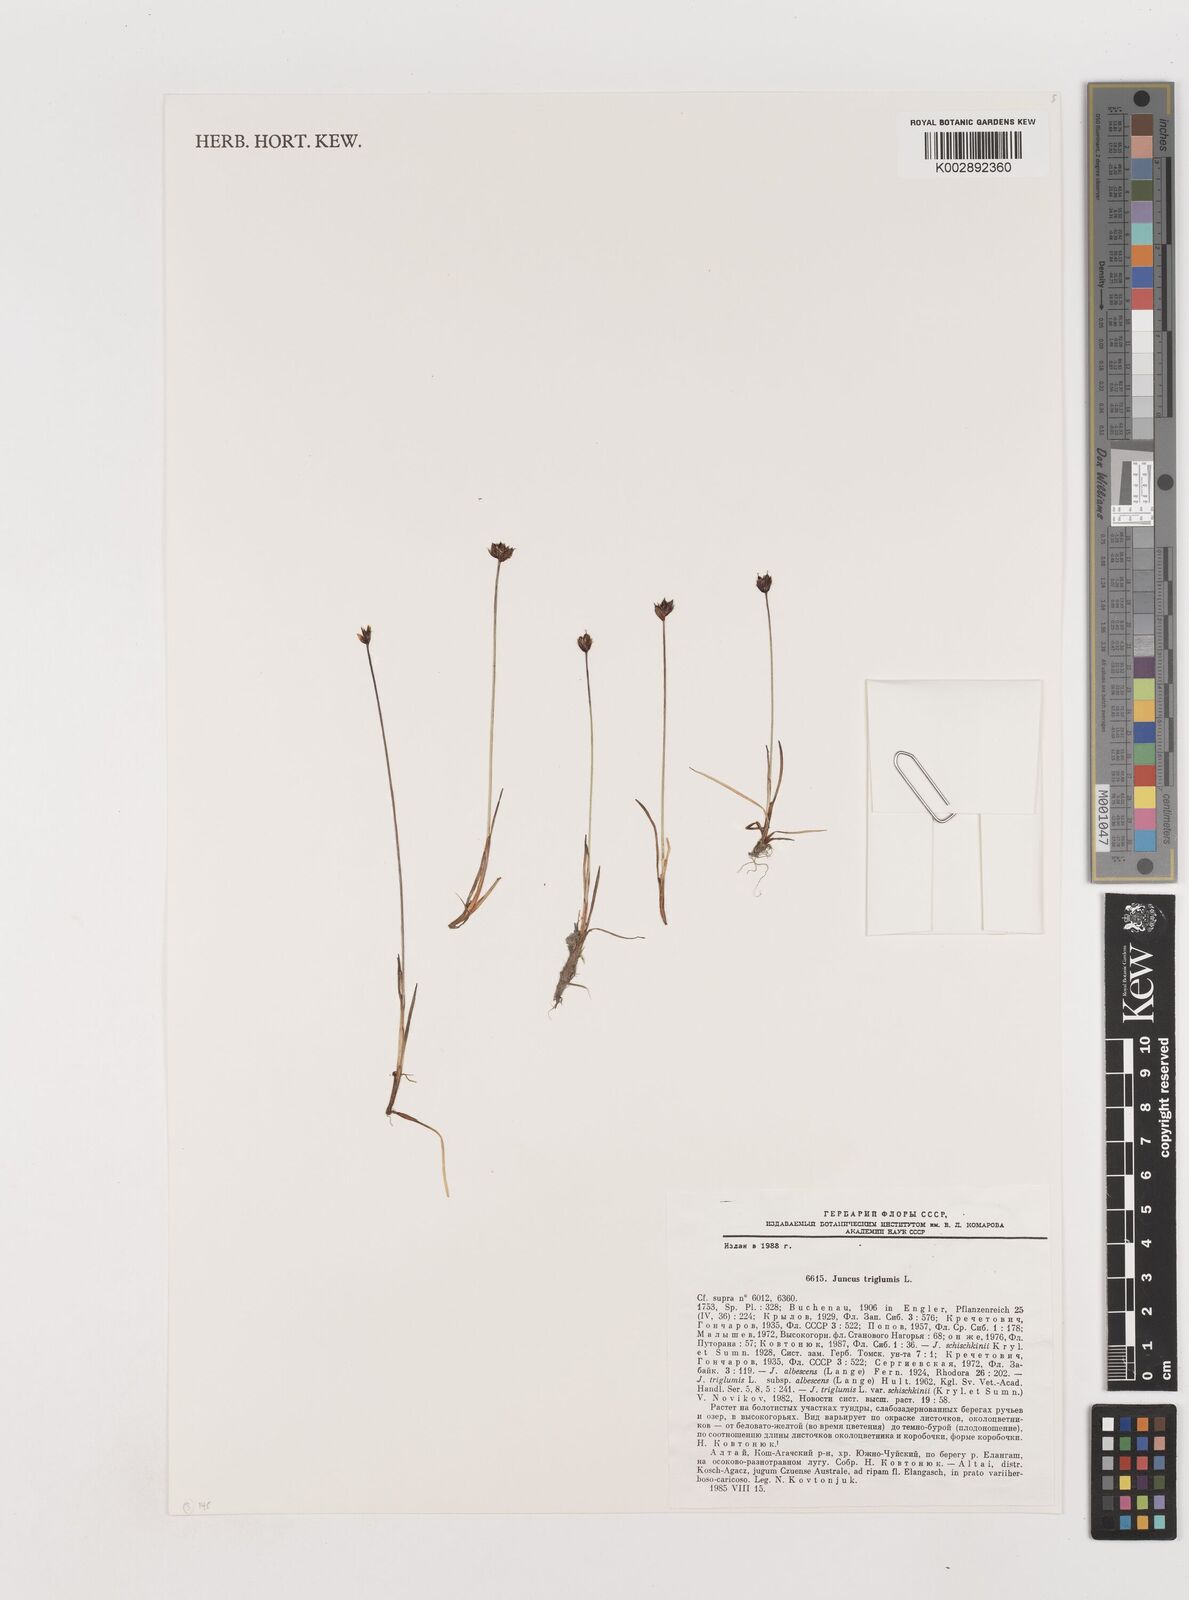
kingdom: Plantae
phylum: Tracheophyta
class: Liliopsida
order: Poales
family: Juncaceae
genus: Juncus
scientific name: Juncus triglumis
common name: Three-flowered rush
